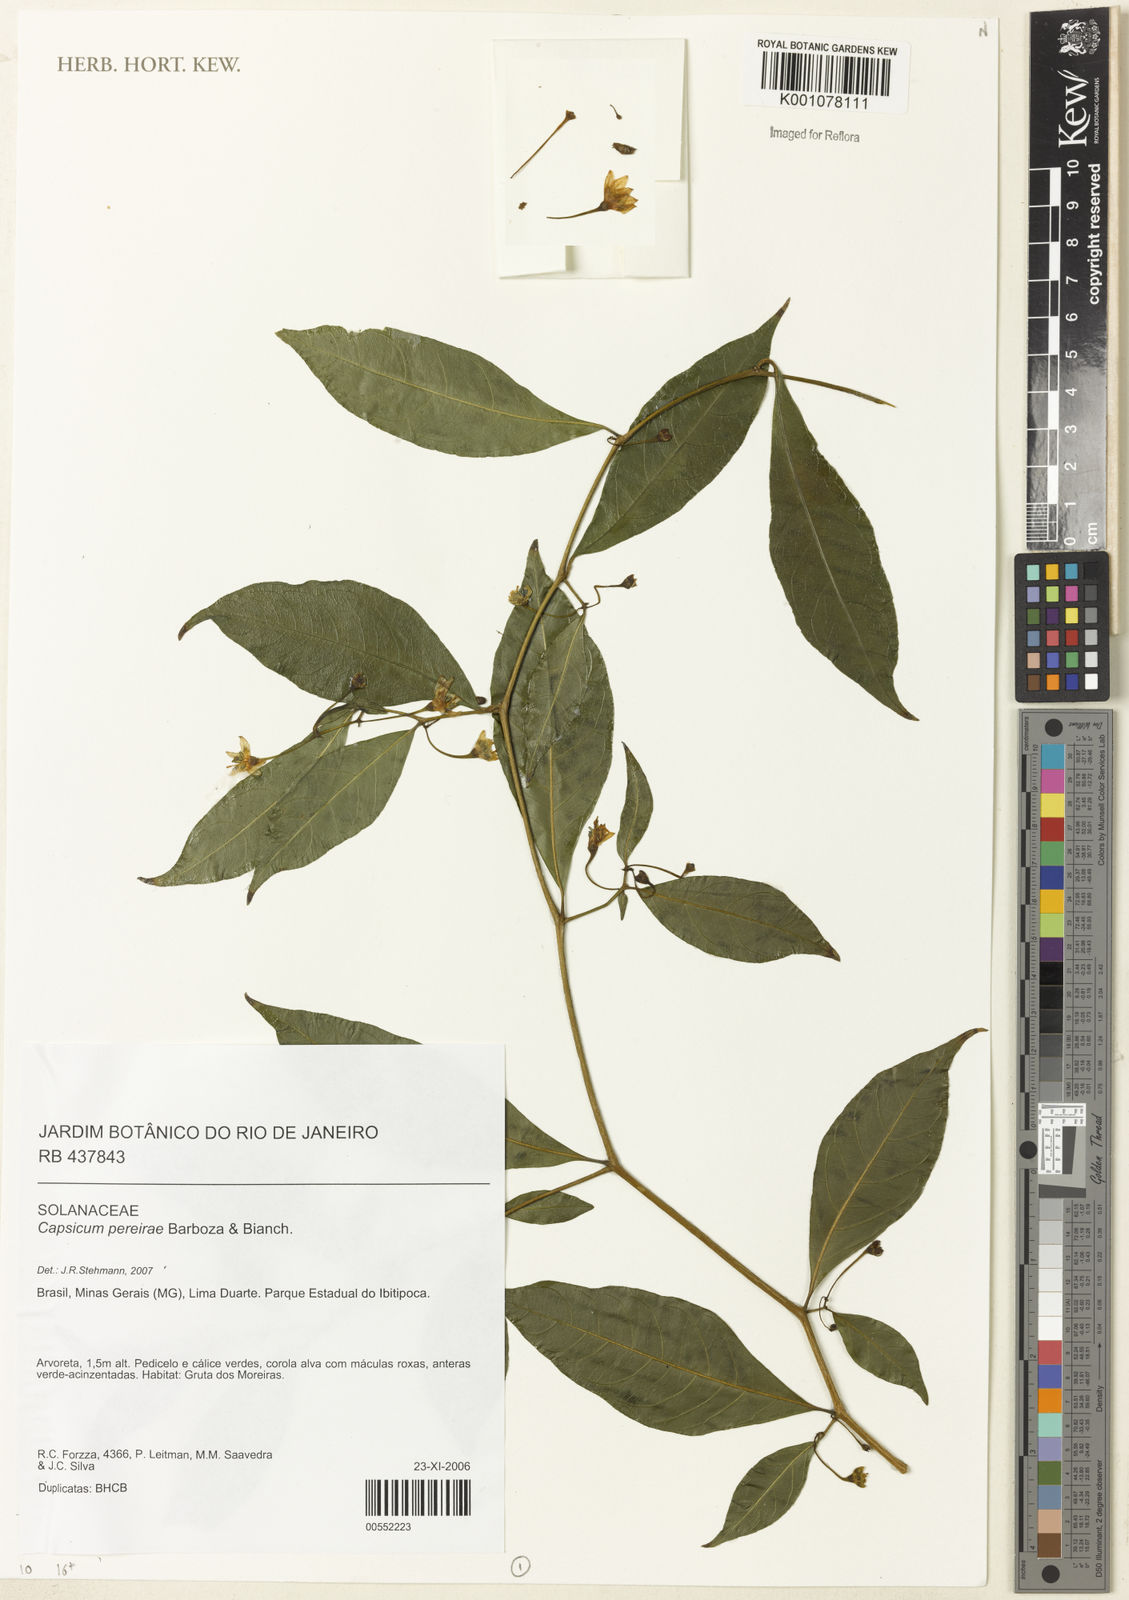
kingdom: Plantae
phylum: Tracheophyta
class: Magnoliopsida
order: Solanales
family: Solanaceae
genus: Capsicum
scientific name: Capsicum pereirae
